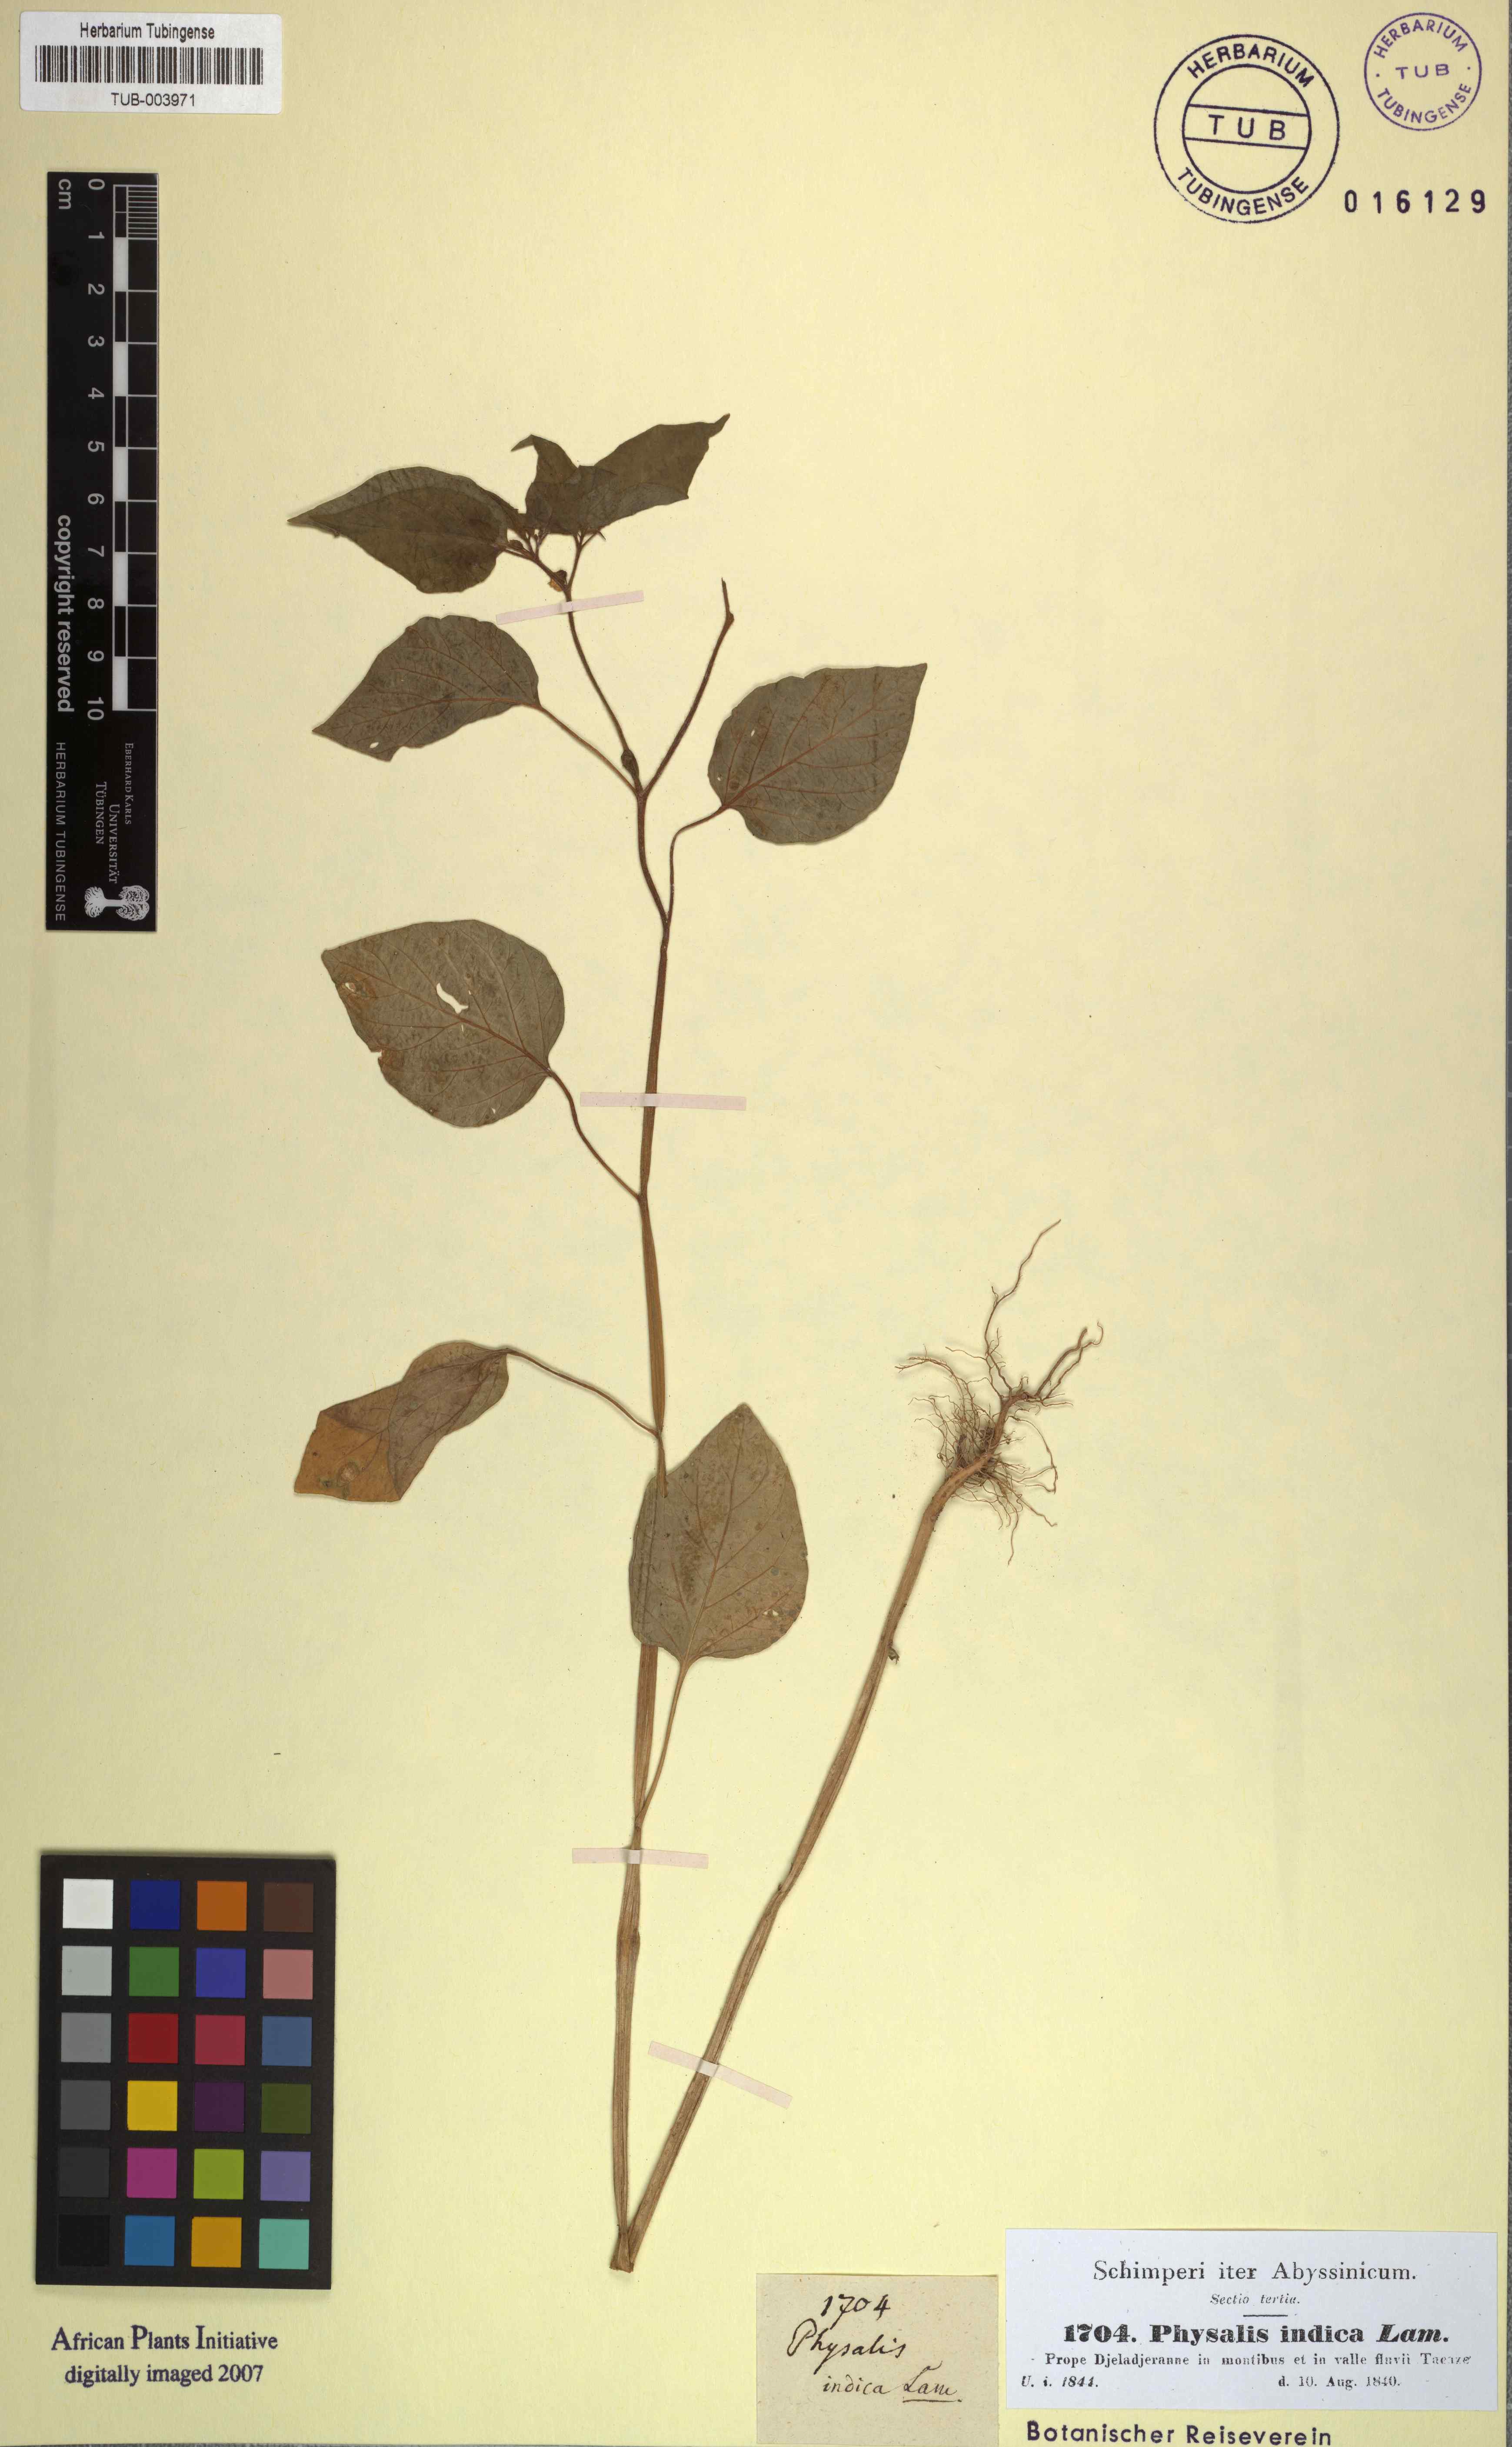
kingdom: Plantae
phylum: Tracheophyta
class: Magnoliopsida
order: Solanales
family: Solanaceae
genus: Physalis
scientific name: Physalis angulata
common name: Angular winter-cherry
